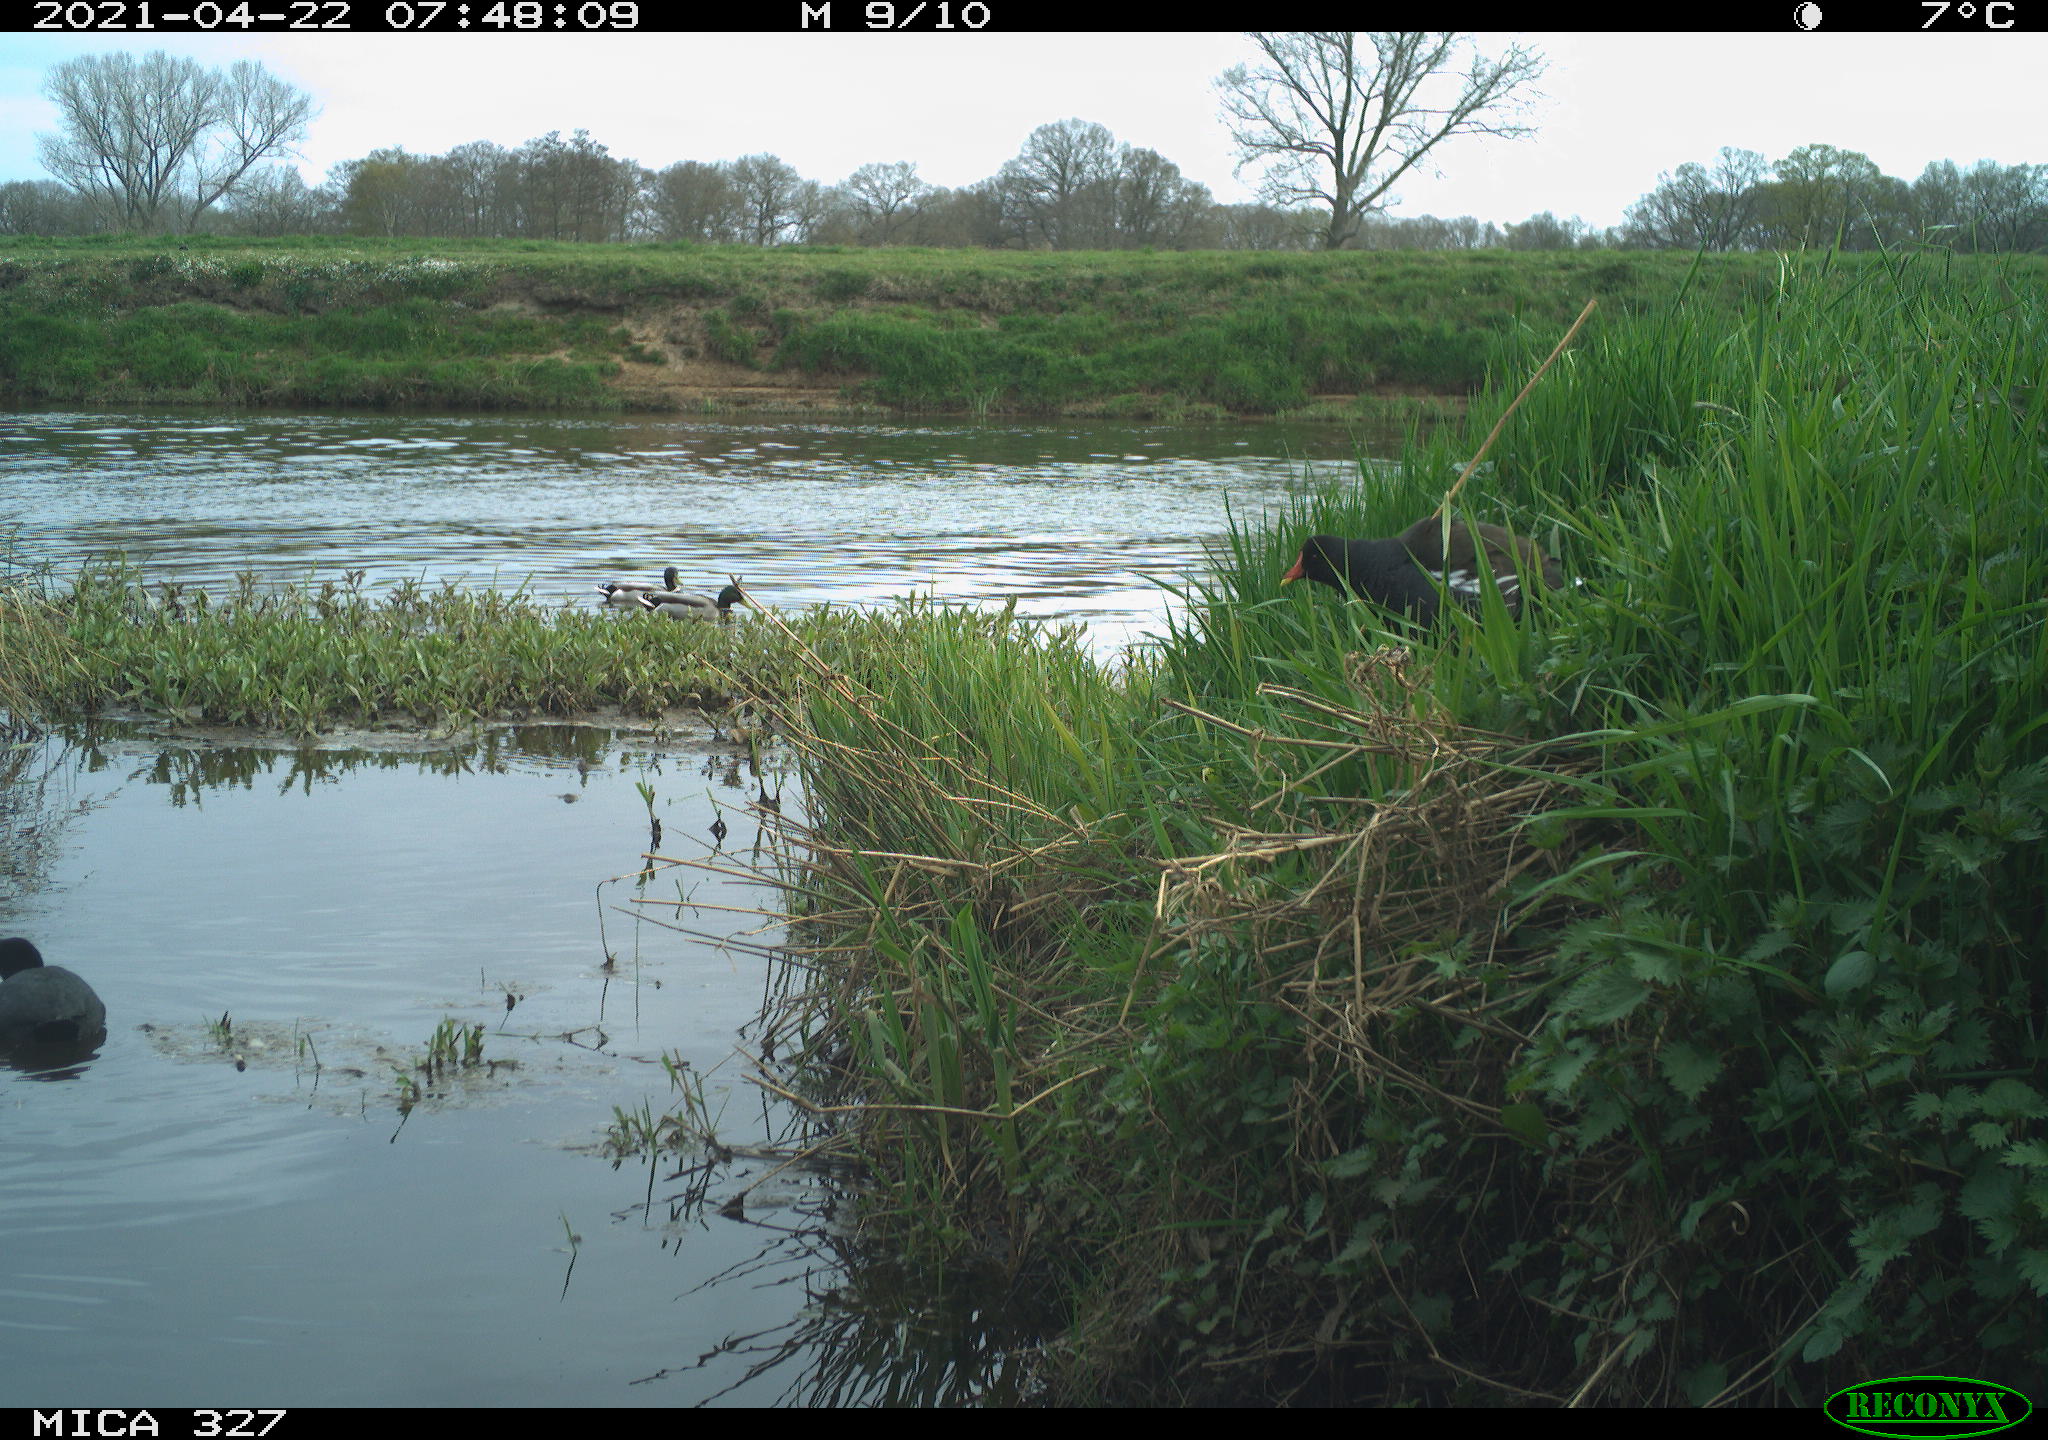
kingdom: Animalia
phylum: Chordata
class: Aves
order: Gruiformes
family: Rallidae
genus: Gallinula
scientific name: Gallinula chloropus
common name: Common moorhen
